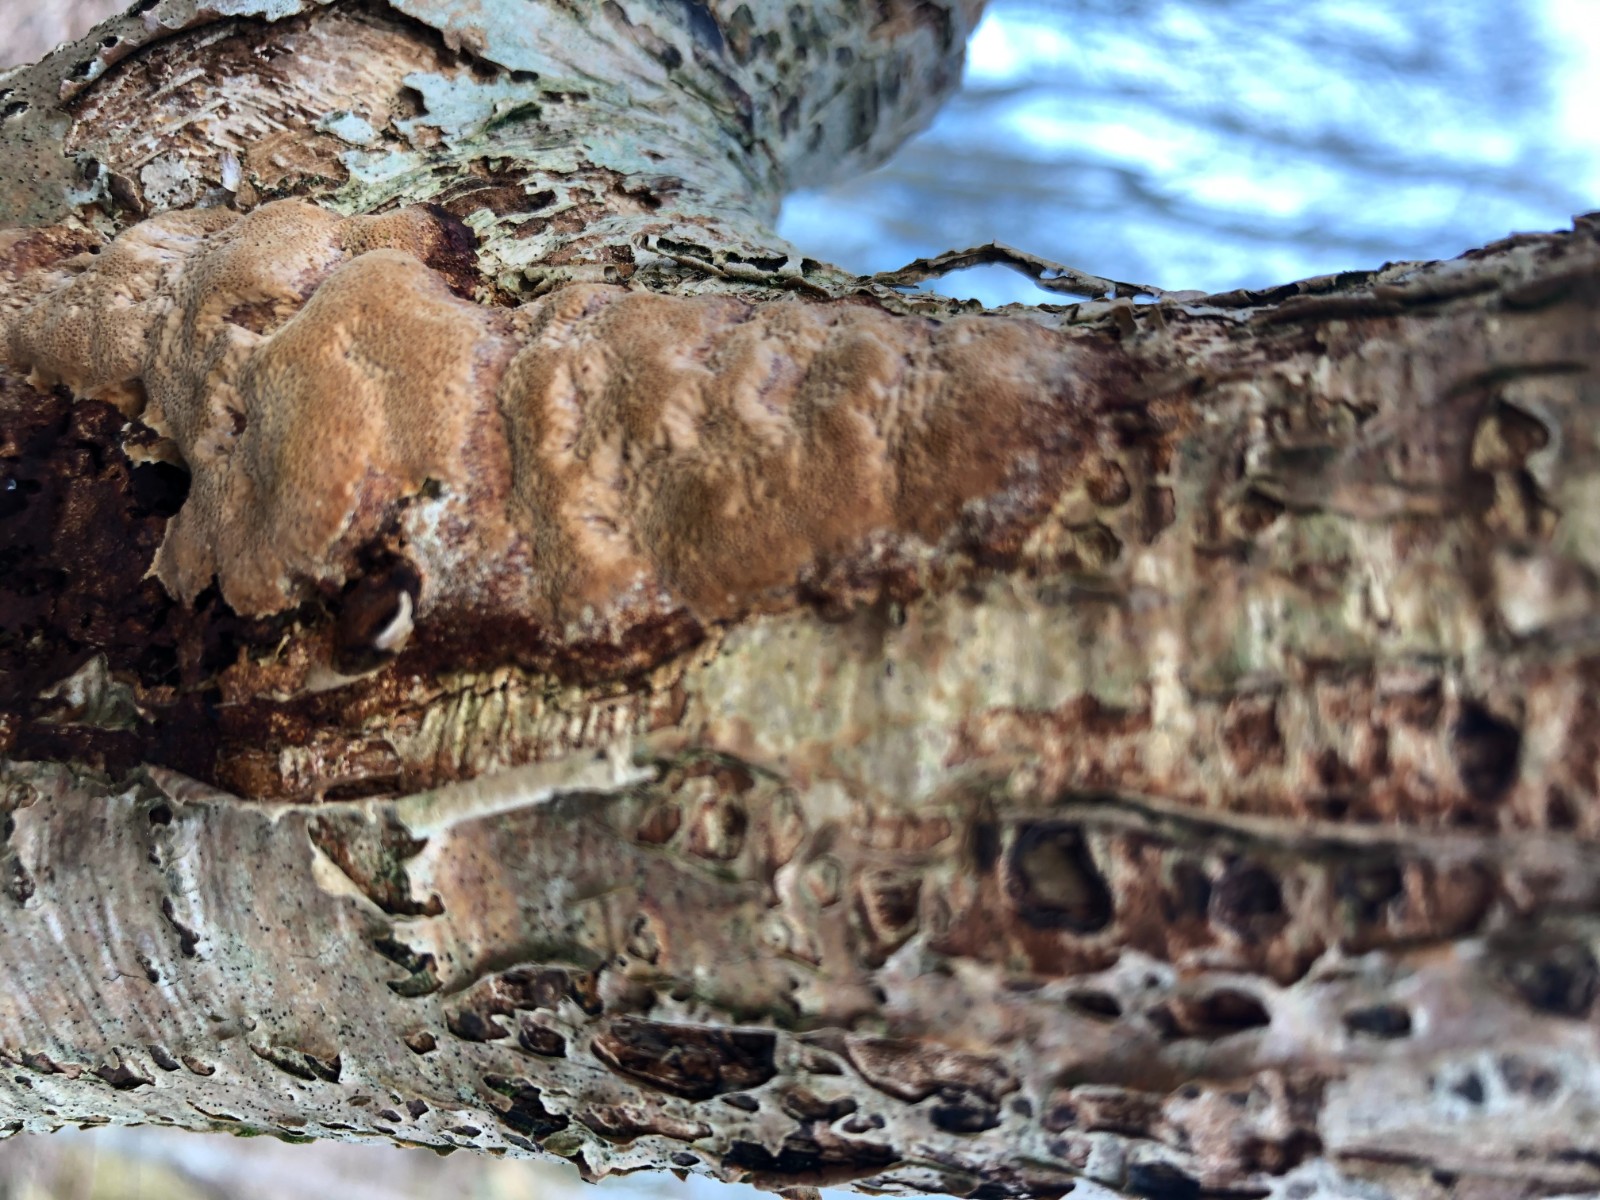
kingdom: Fungi
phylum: Basidiomycota
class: Agaricomycetes
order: Hymenochaetales
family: Hymenochaetaceae
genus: Fuscoporia
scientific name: Fuscoporia ferrea
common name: skorpe-ildporesvamp
